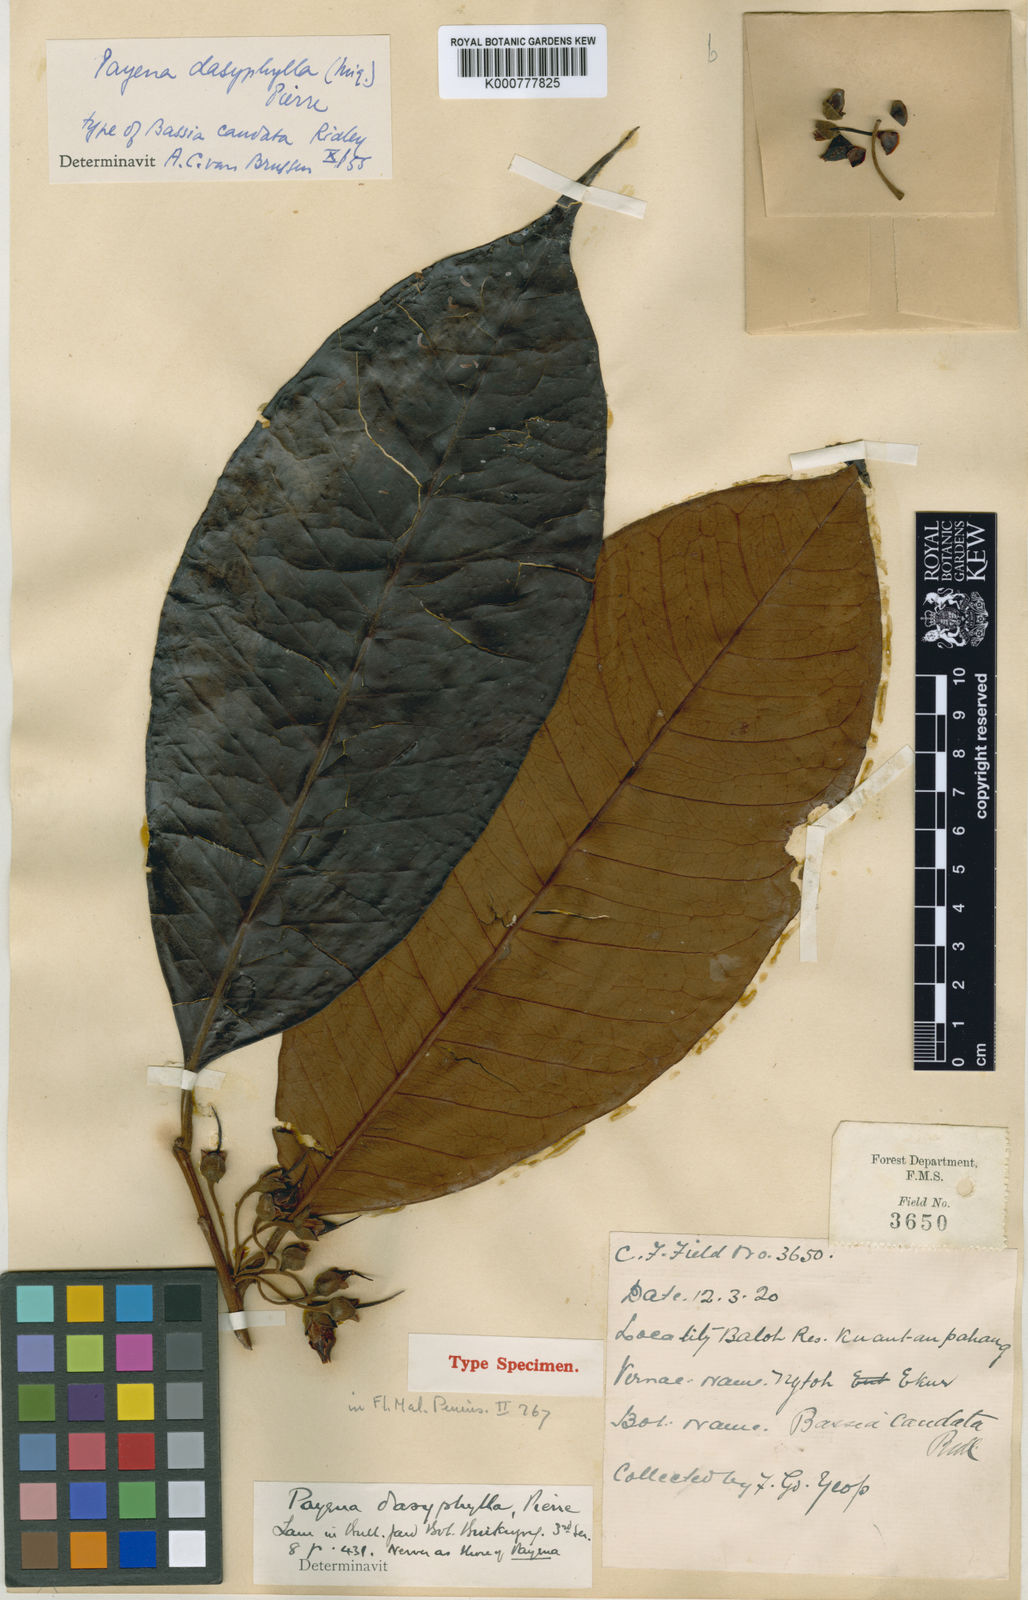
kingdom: Plantae
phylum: Tracheophyta
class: Magnoliopsida
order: Ericales
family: Sapotaceae
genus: Payena
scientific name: Payena dasyphylla
